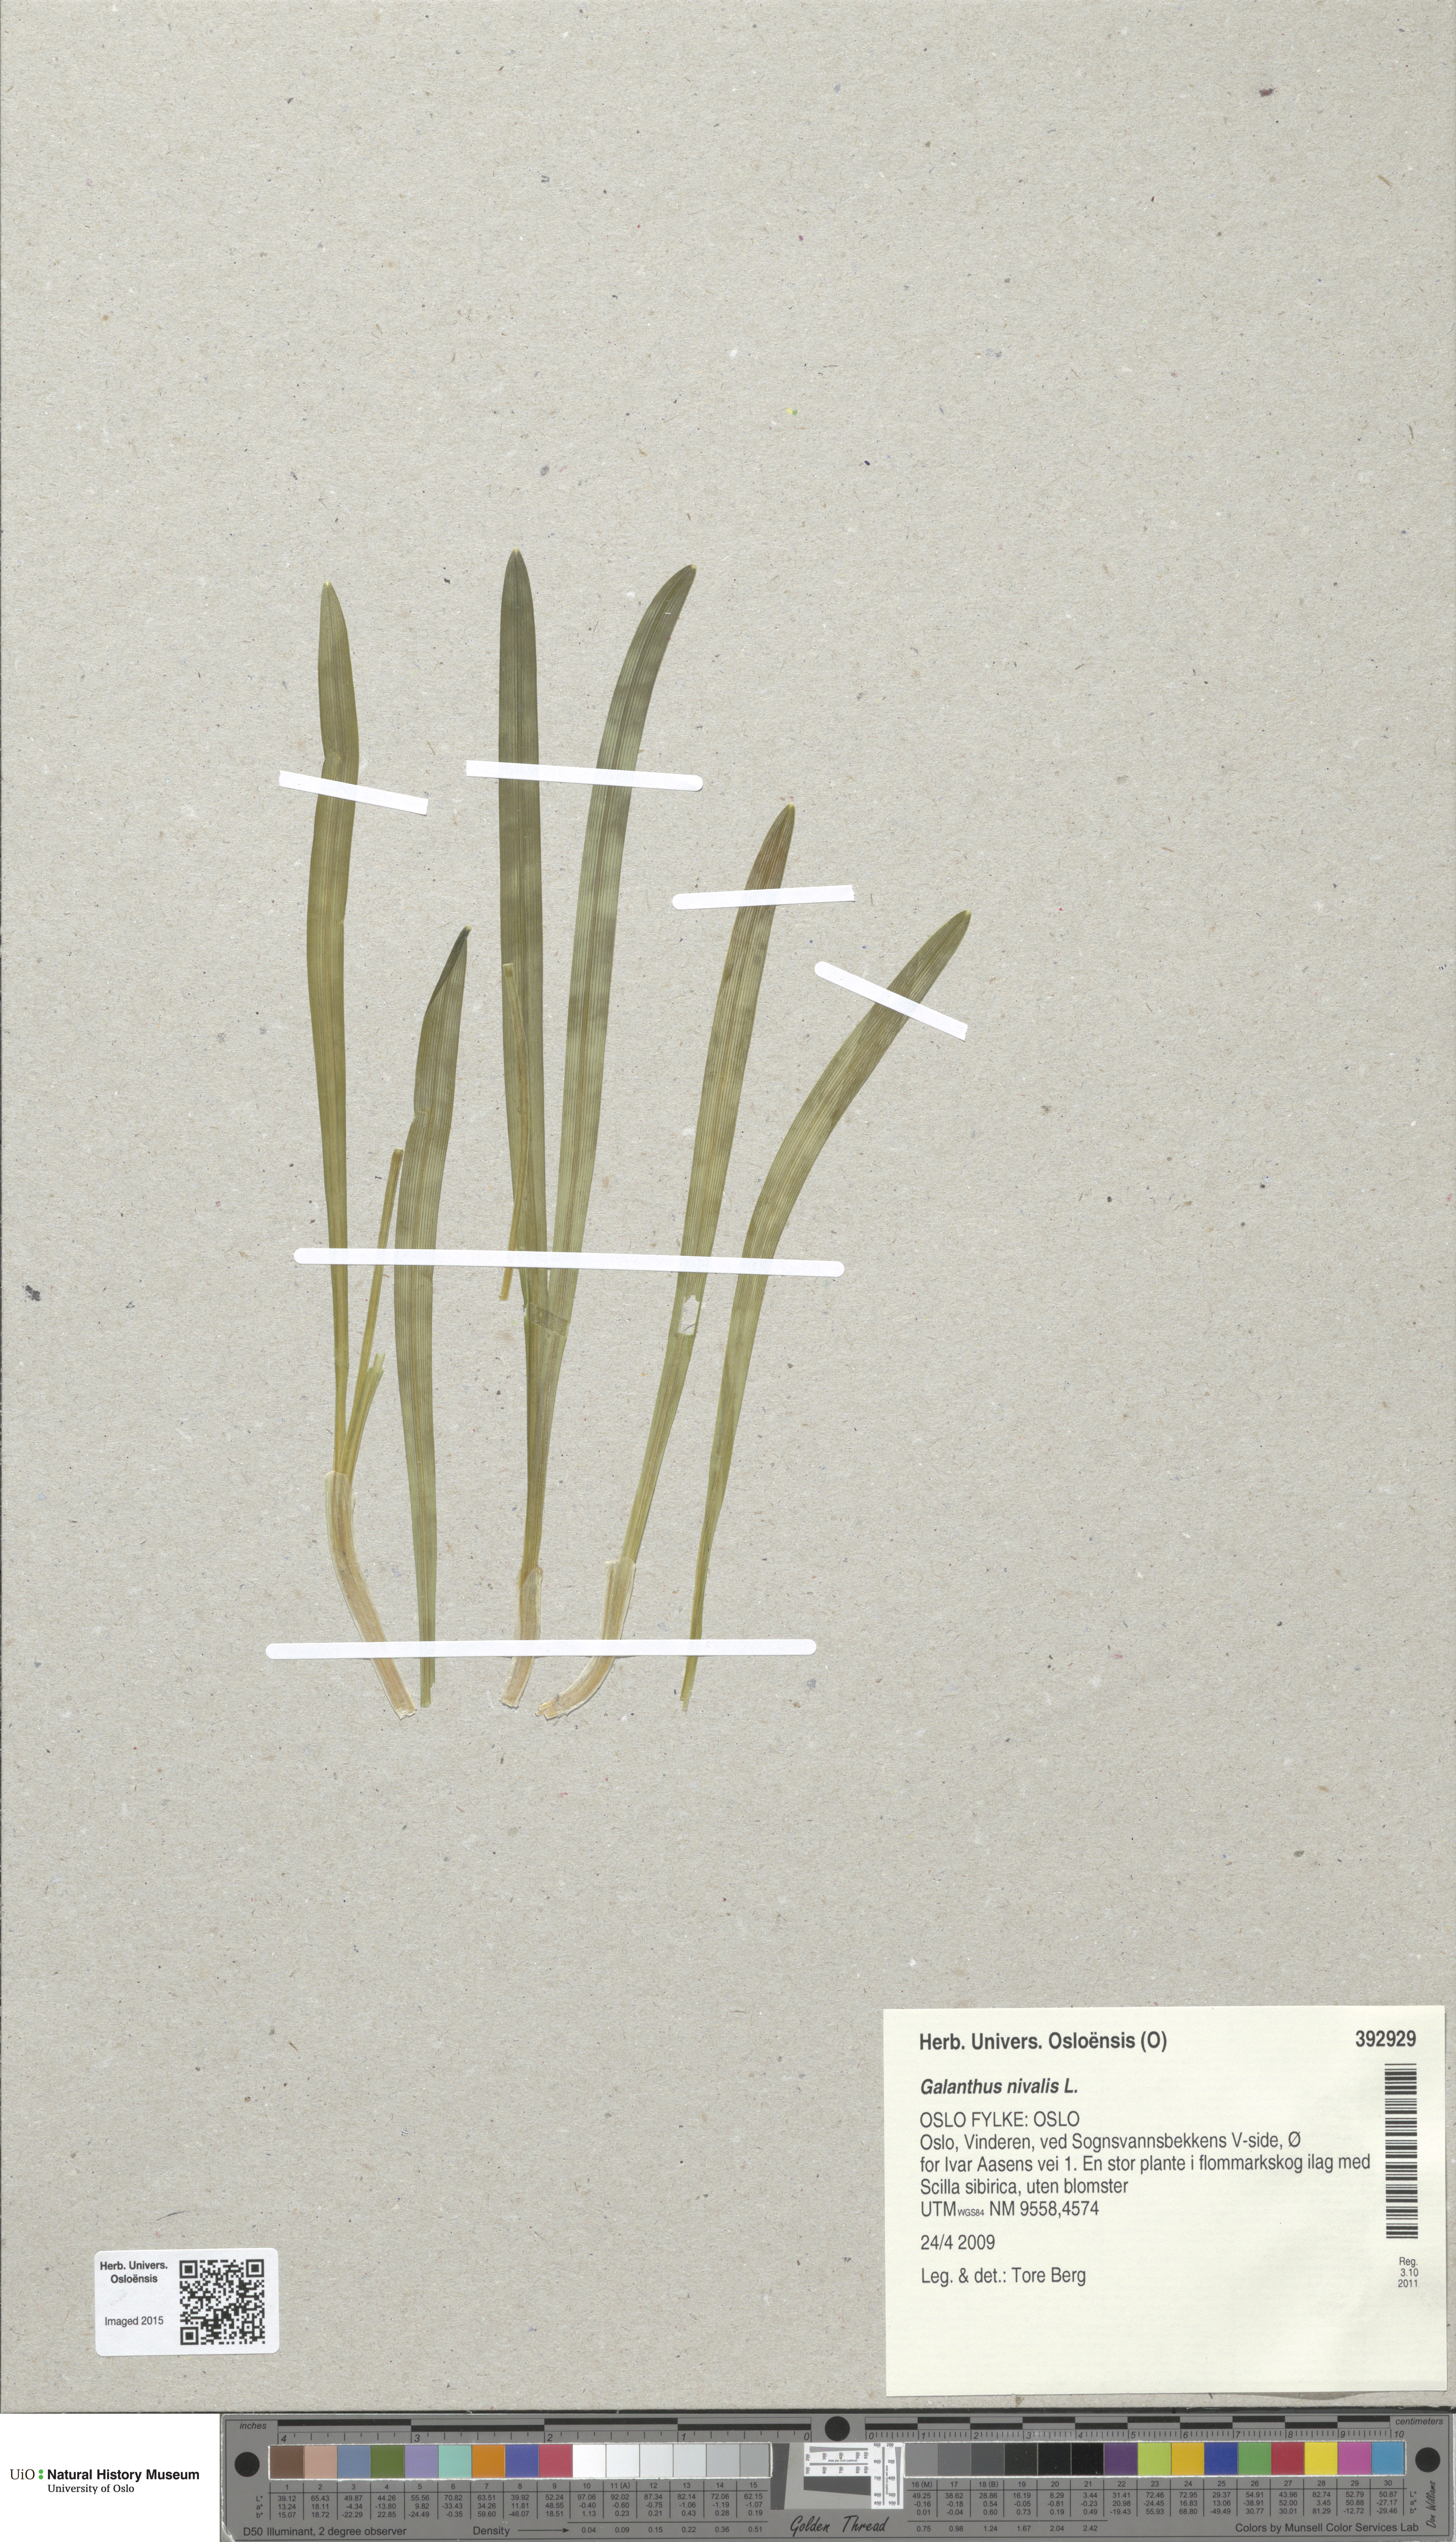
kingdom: Plantae
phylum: Tracheophyta
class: Liliopsida
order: Asparagales
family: Amaryllidaceae
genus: Galanthus
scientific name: Galanthus nivalis
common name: Snowdrop
